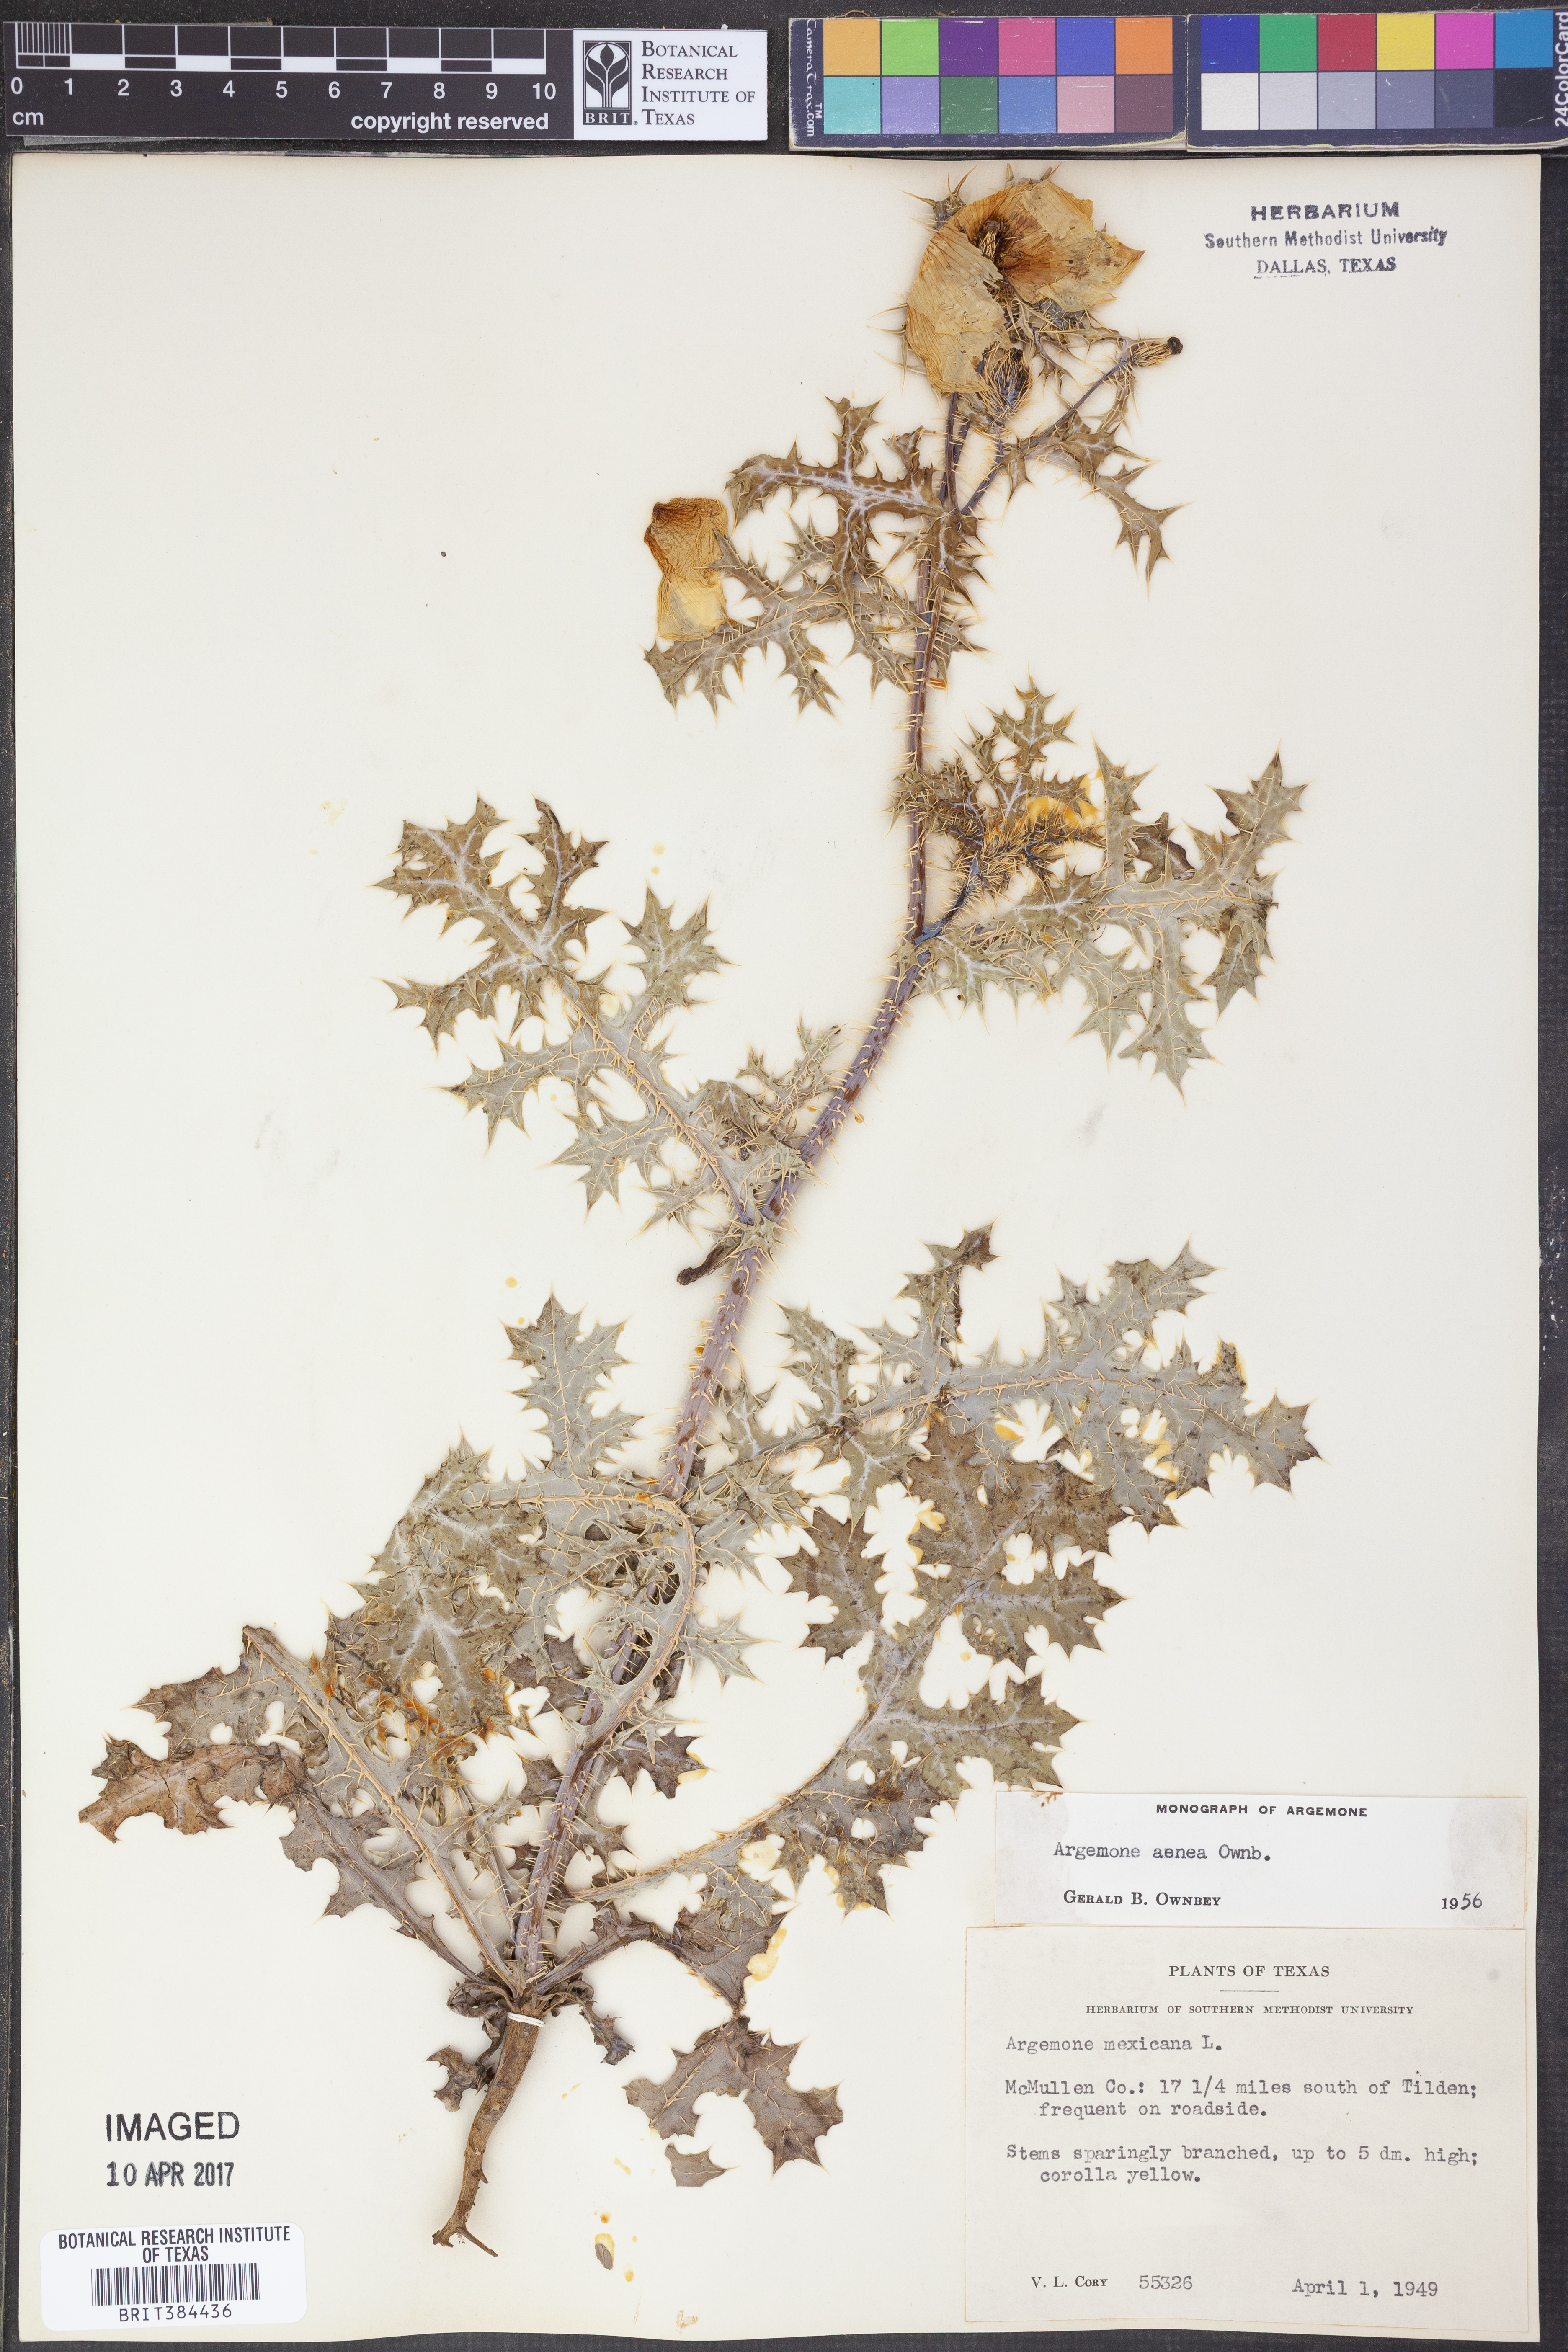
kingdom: Plantae
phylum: Tracheophyta
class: Magnoliopsida
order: Ranunculales
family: Papaveraceae
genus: Argemone
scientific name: Argemone aenea
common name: Golden prickly-poppy
